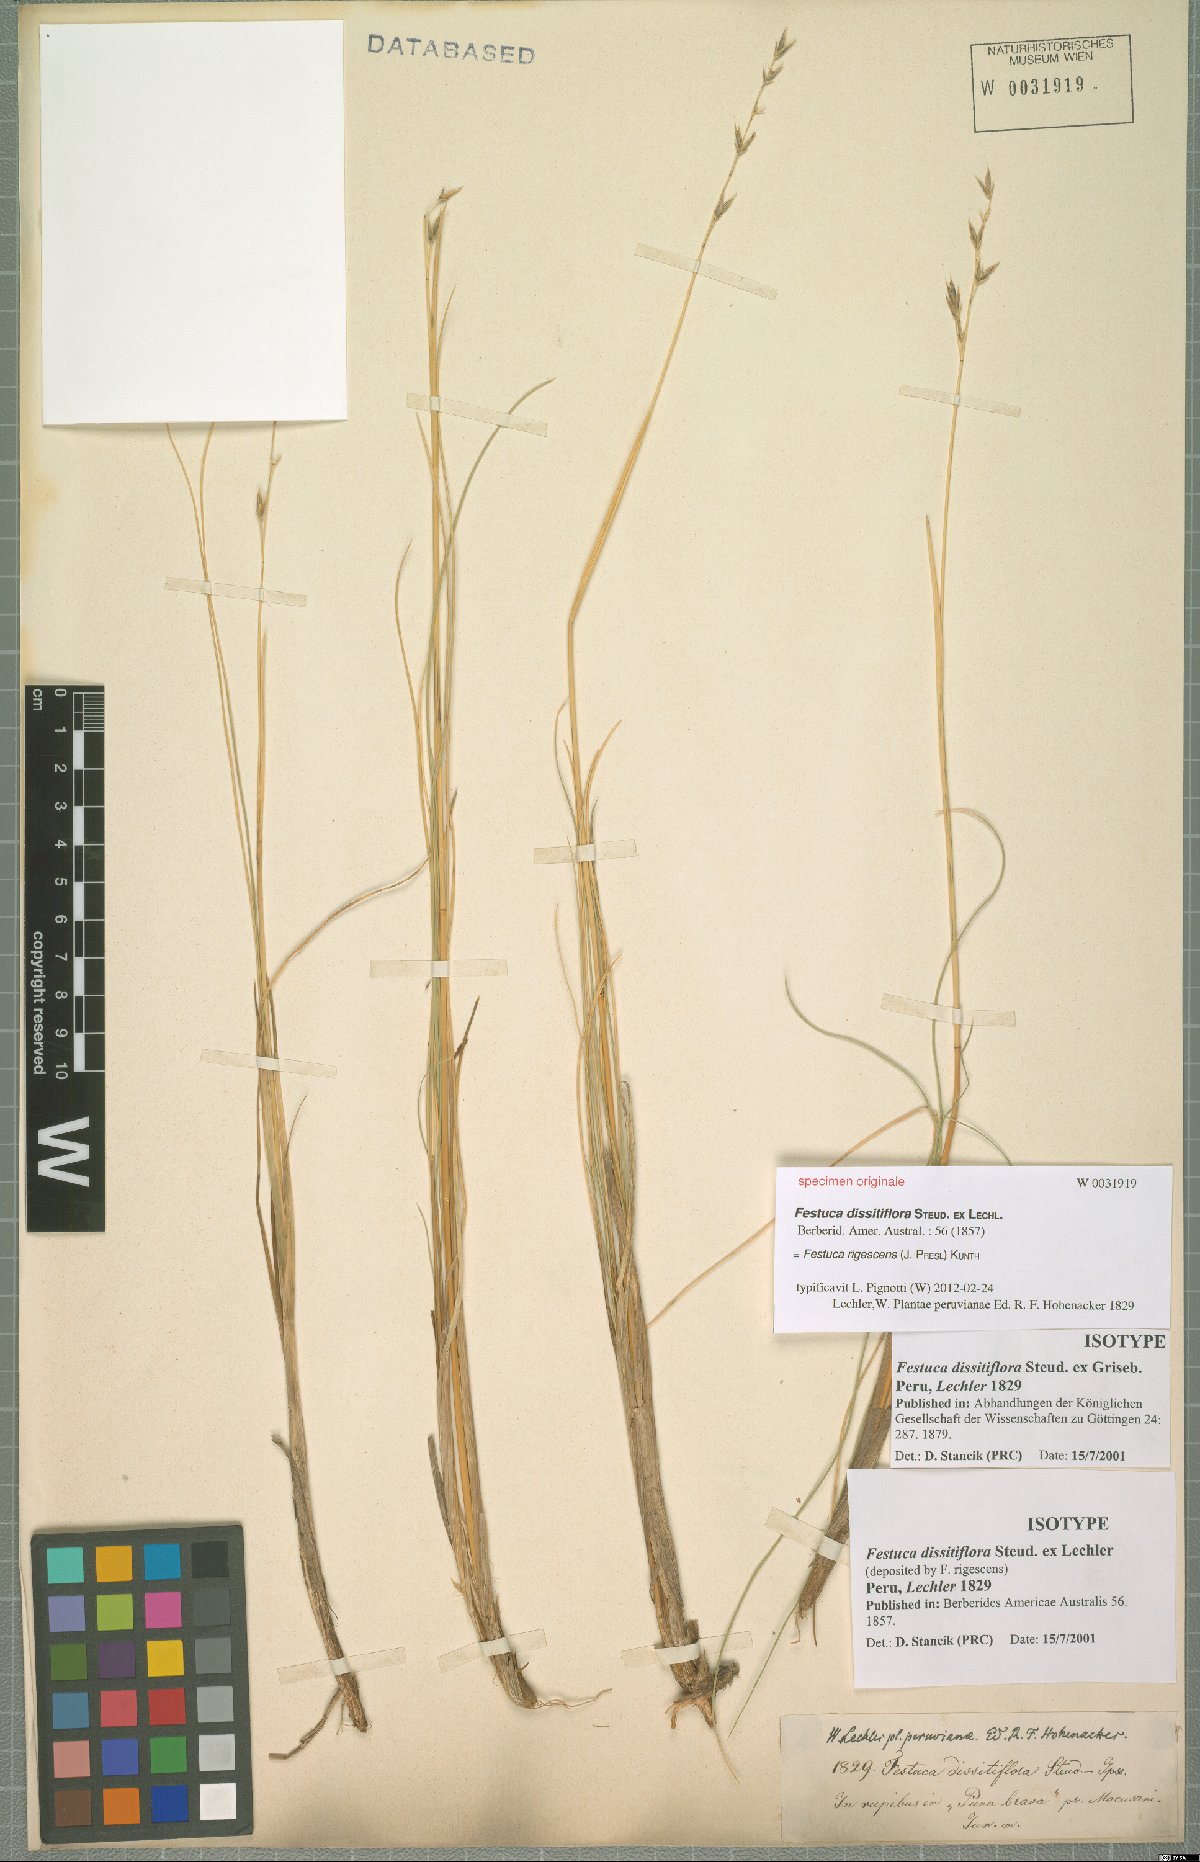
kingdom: Plantae
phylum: Tracheophyta
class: Liliopsida
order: Poales
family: Poaceae
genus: Festuca
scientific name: Festuca rigescens
